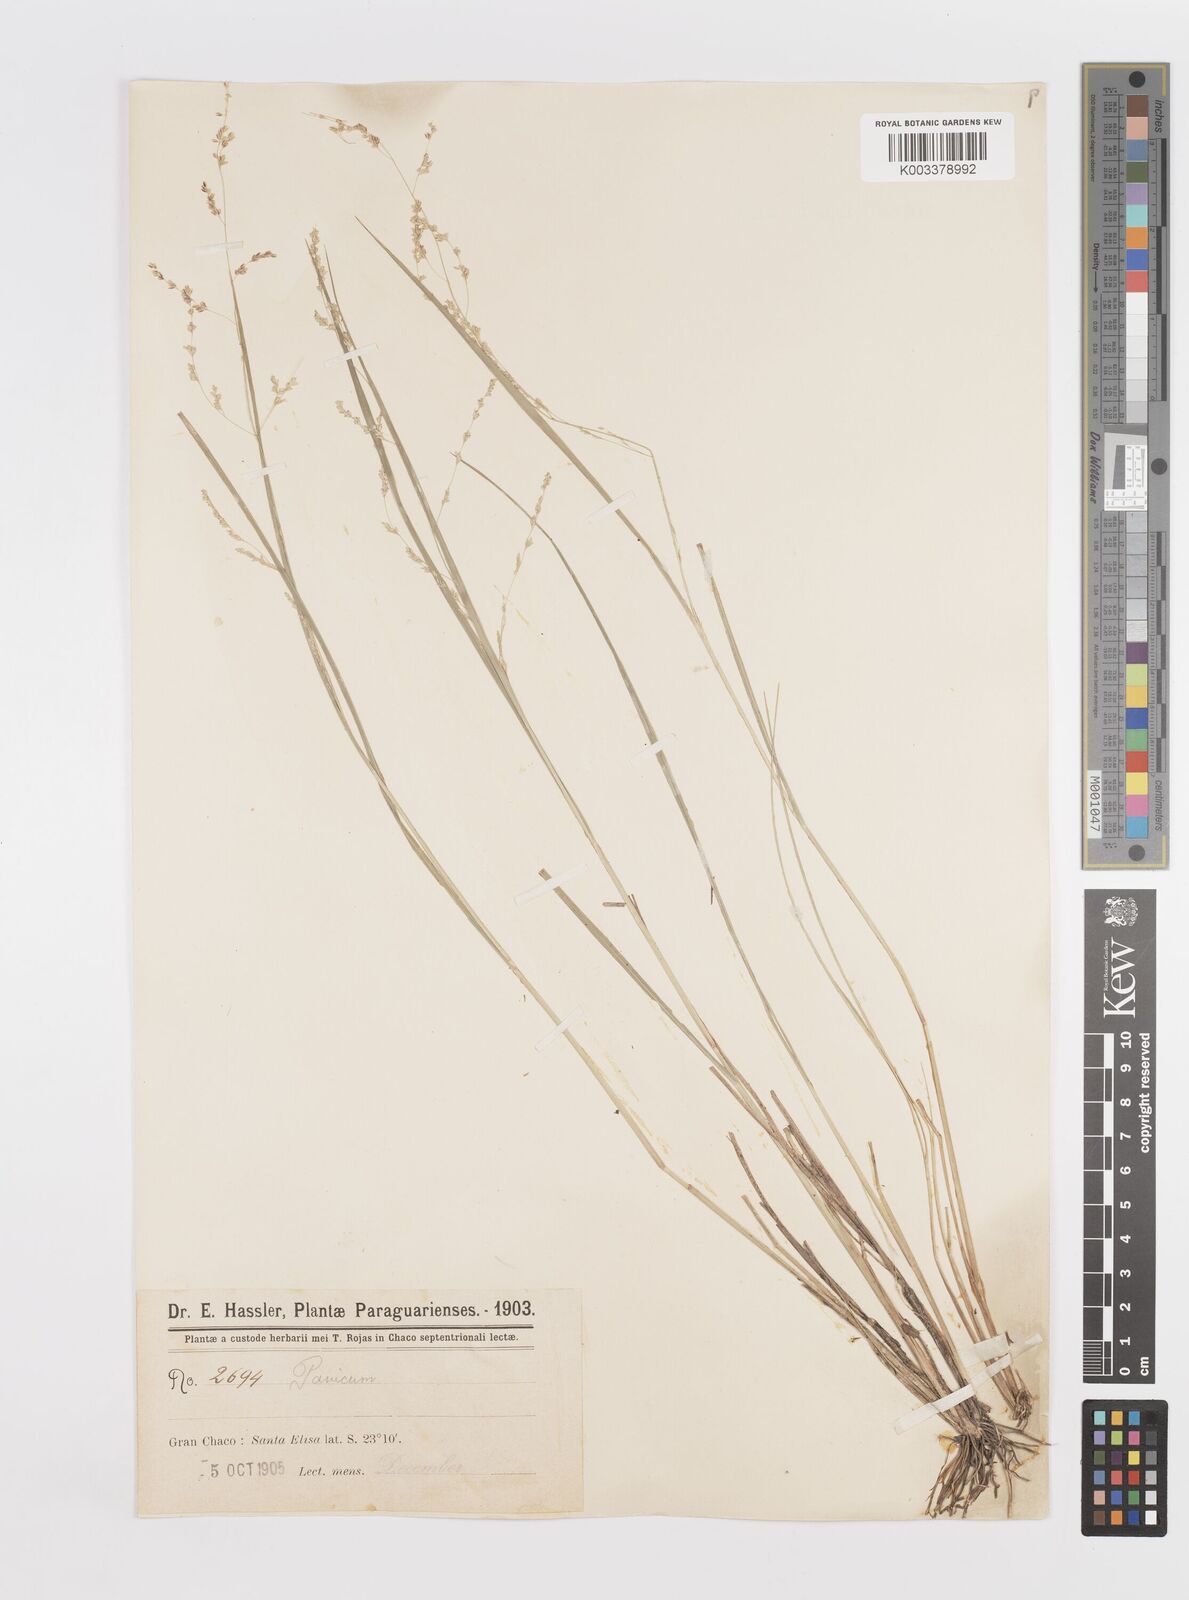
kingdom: Plantae
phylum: Tracheophyta
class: Liliopsida
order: Poales
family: Poaceae
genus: Steinchisma
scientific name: Steinchisma hians
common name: Gaping panic grass
